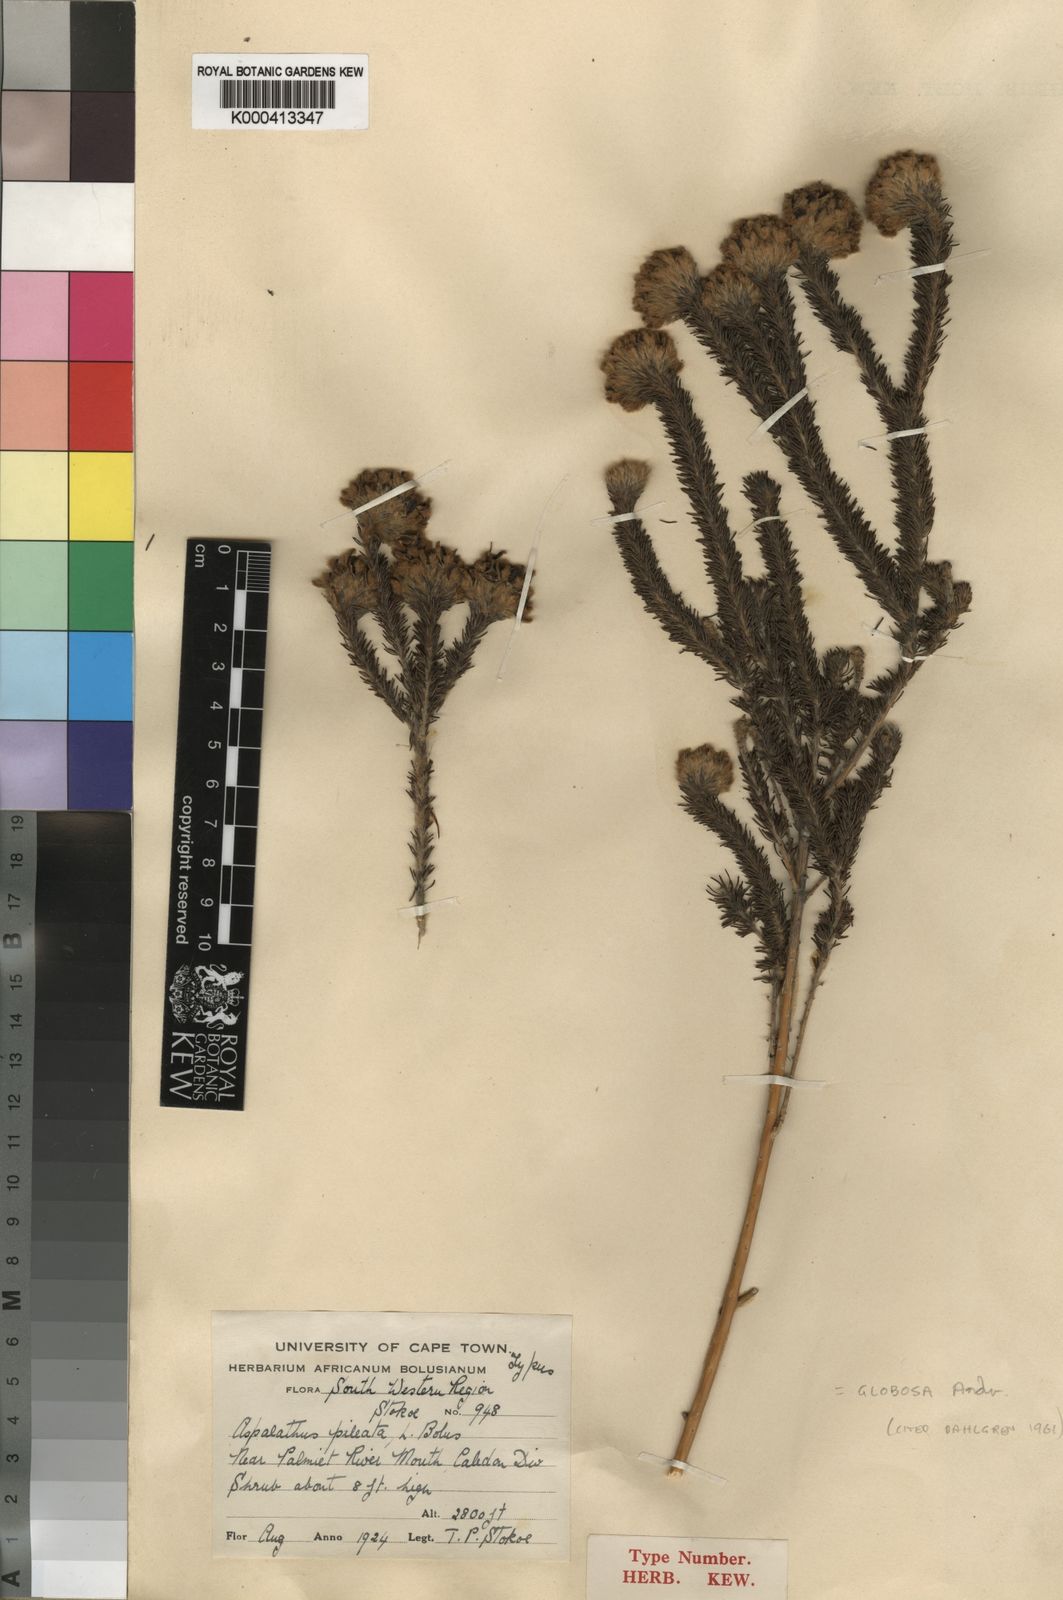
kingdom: Plantae
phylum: Tracheophyta
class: Magnoliopsida
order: Fabales
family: Fabaceae
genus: Aspalathus
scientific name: Aspalathus globosa
